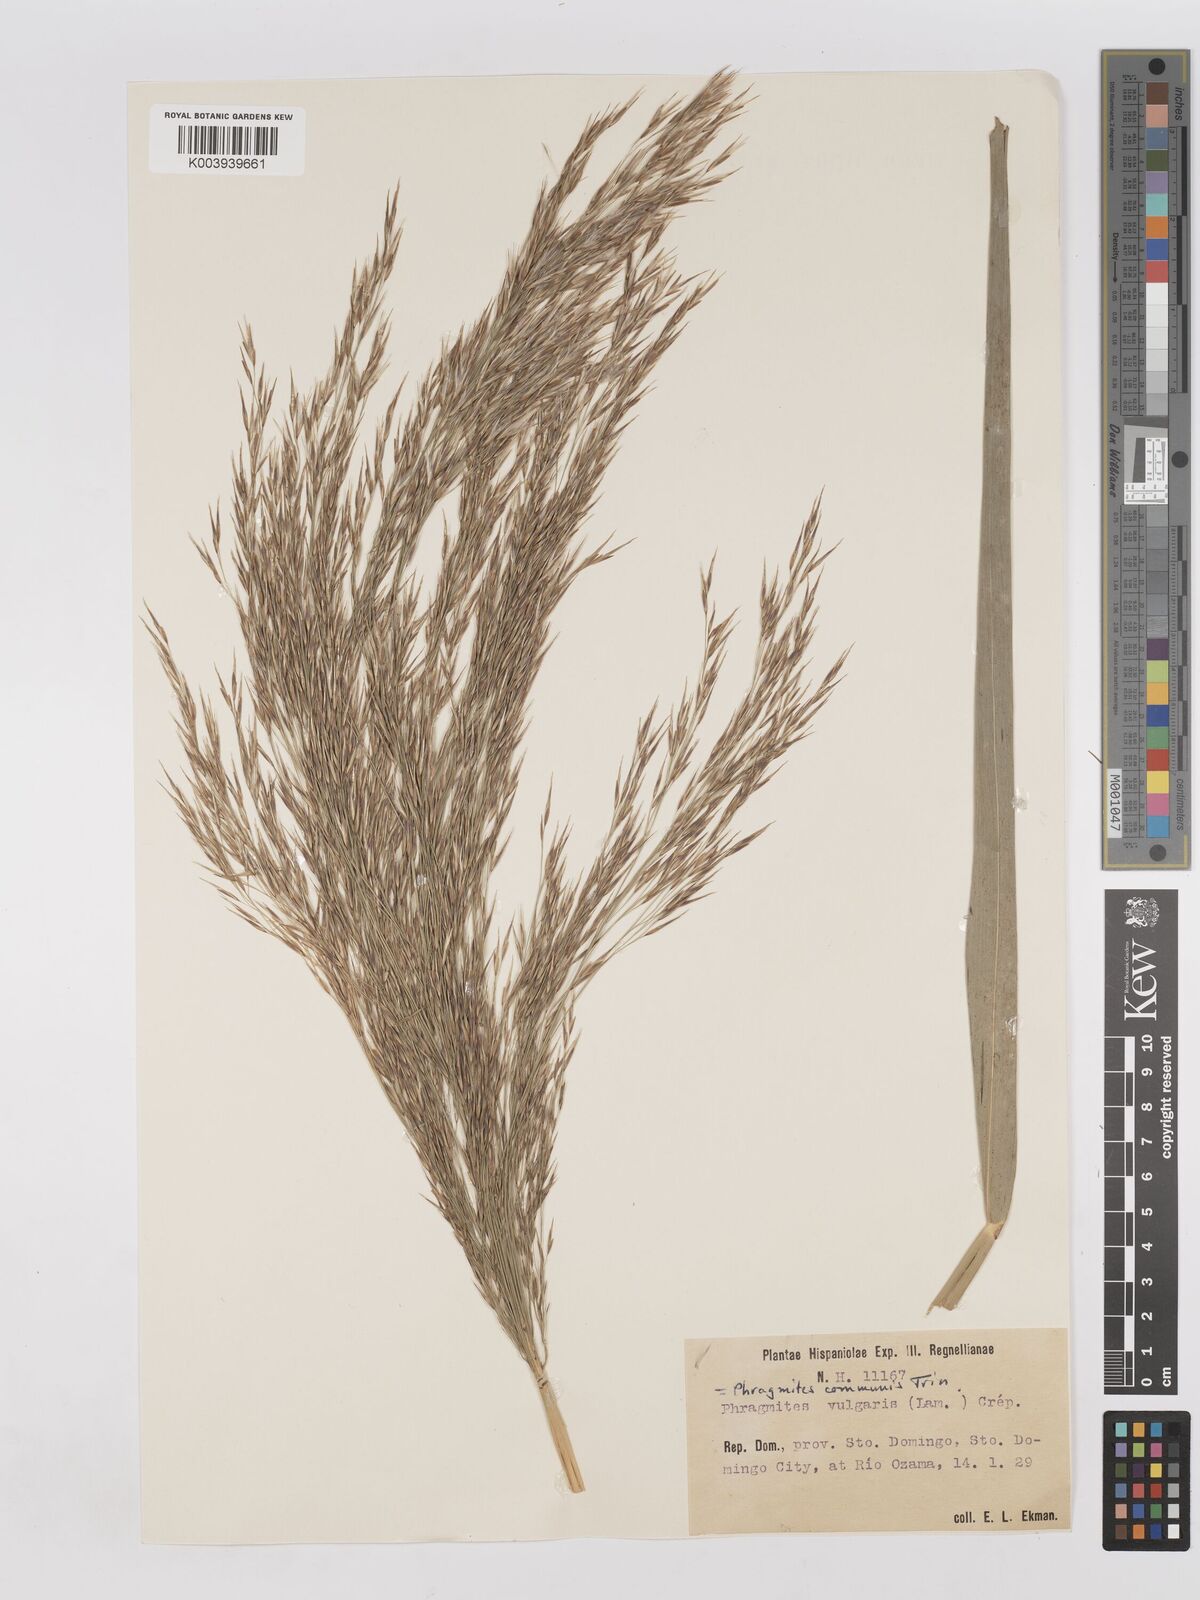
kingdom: Plantae
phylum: Tracheophyta
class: Liliopsida
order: Poales
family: Poaceae
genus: Phragmites
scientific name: Phragmites australis
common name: Common reed
